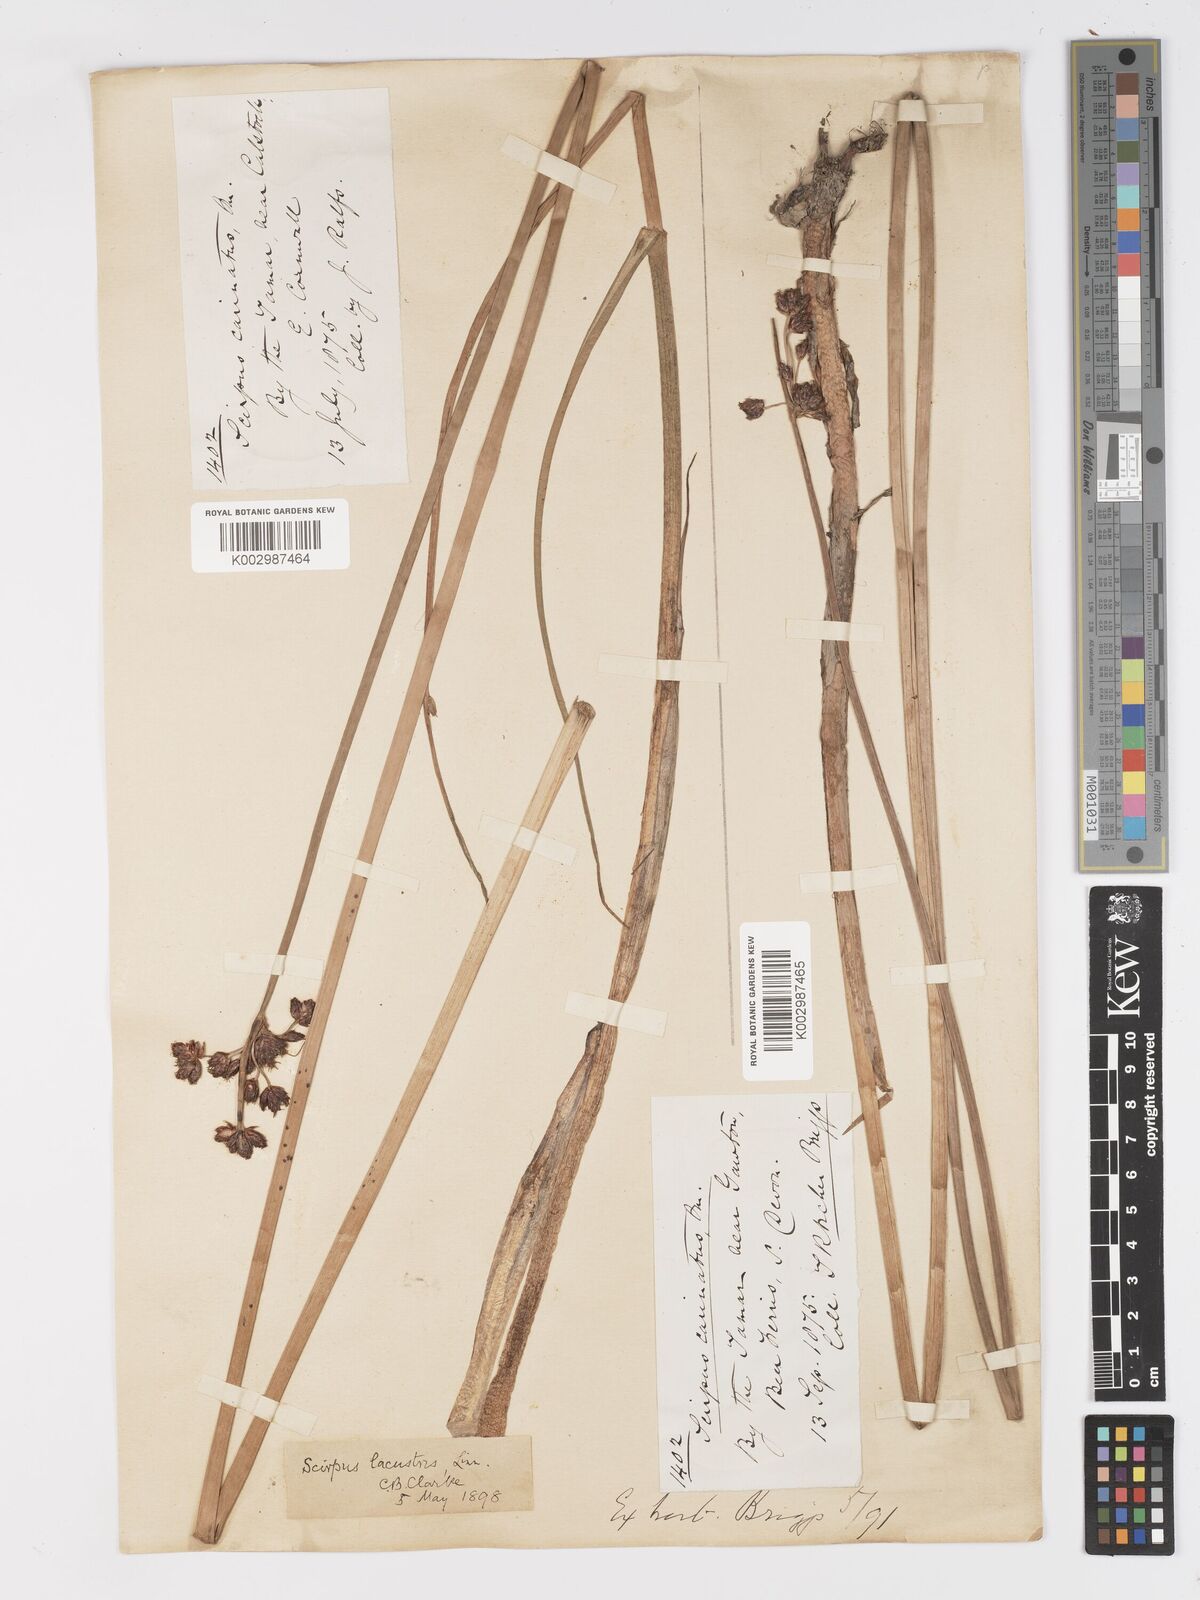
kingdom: Plantae
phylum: Tracheophyta
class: Liliopsida
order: Poales
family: Cyperaceae
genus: Schoenoplectus
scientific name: Schoenoplectus carinatus
